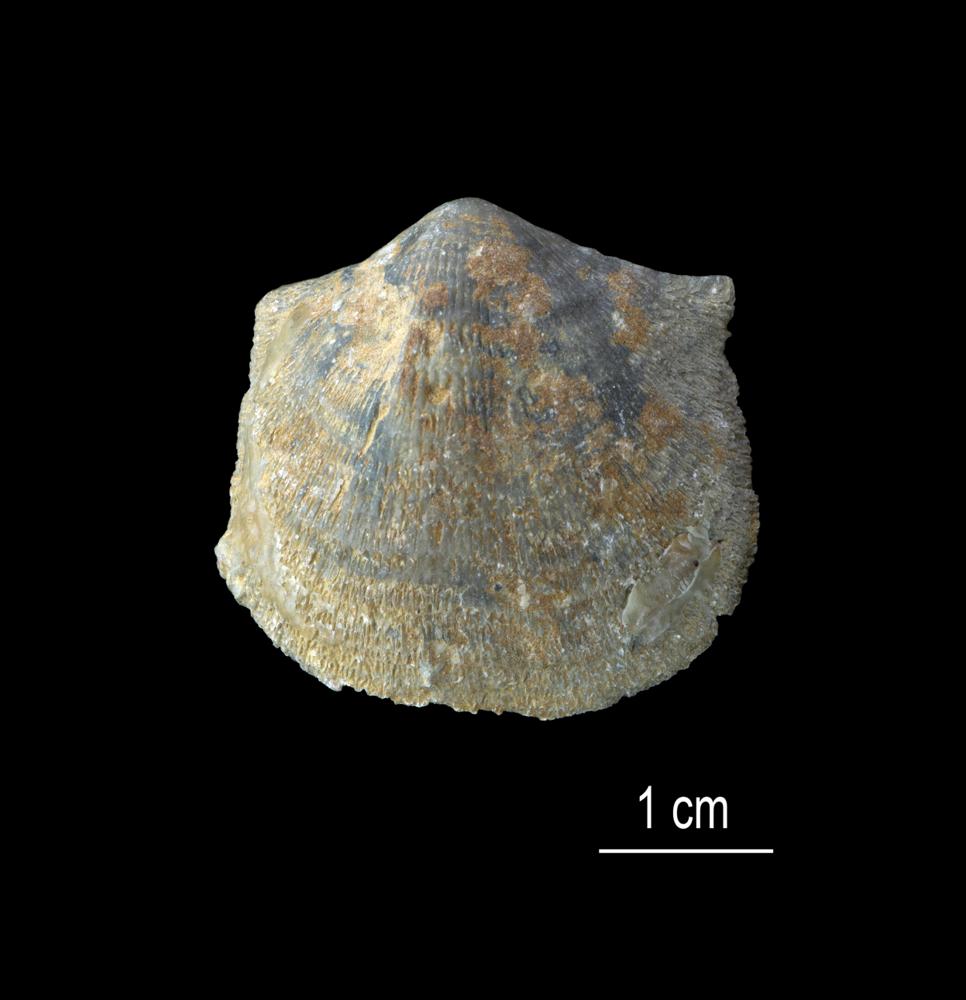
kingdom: Animalia
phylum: Brachiopoda
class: Rhynchonellata
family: Clitambonitidae
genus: Clitambonites
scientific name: Clitambonites squamatus
